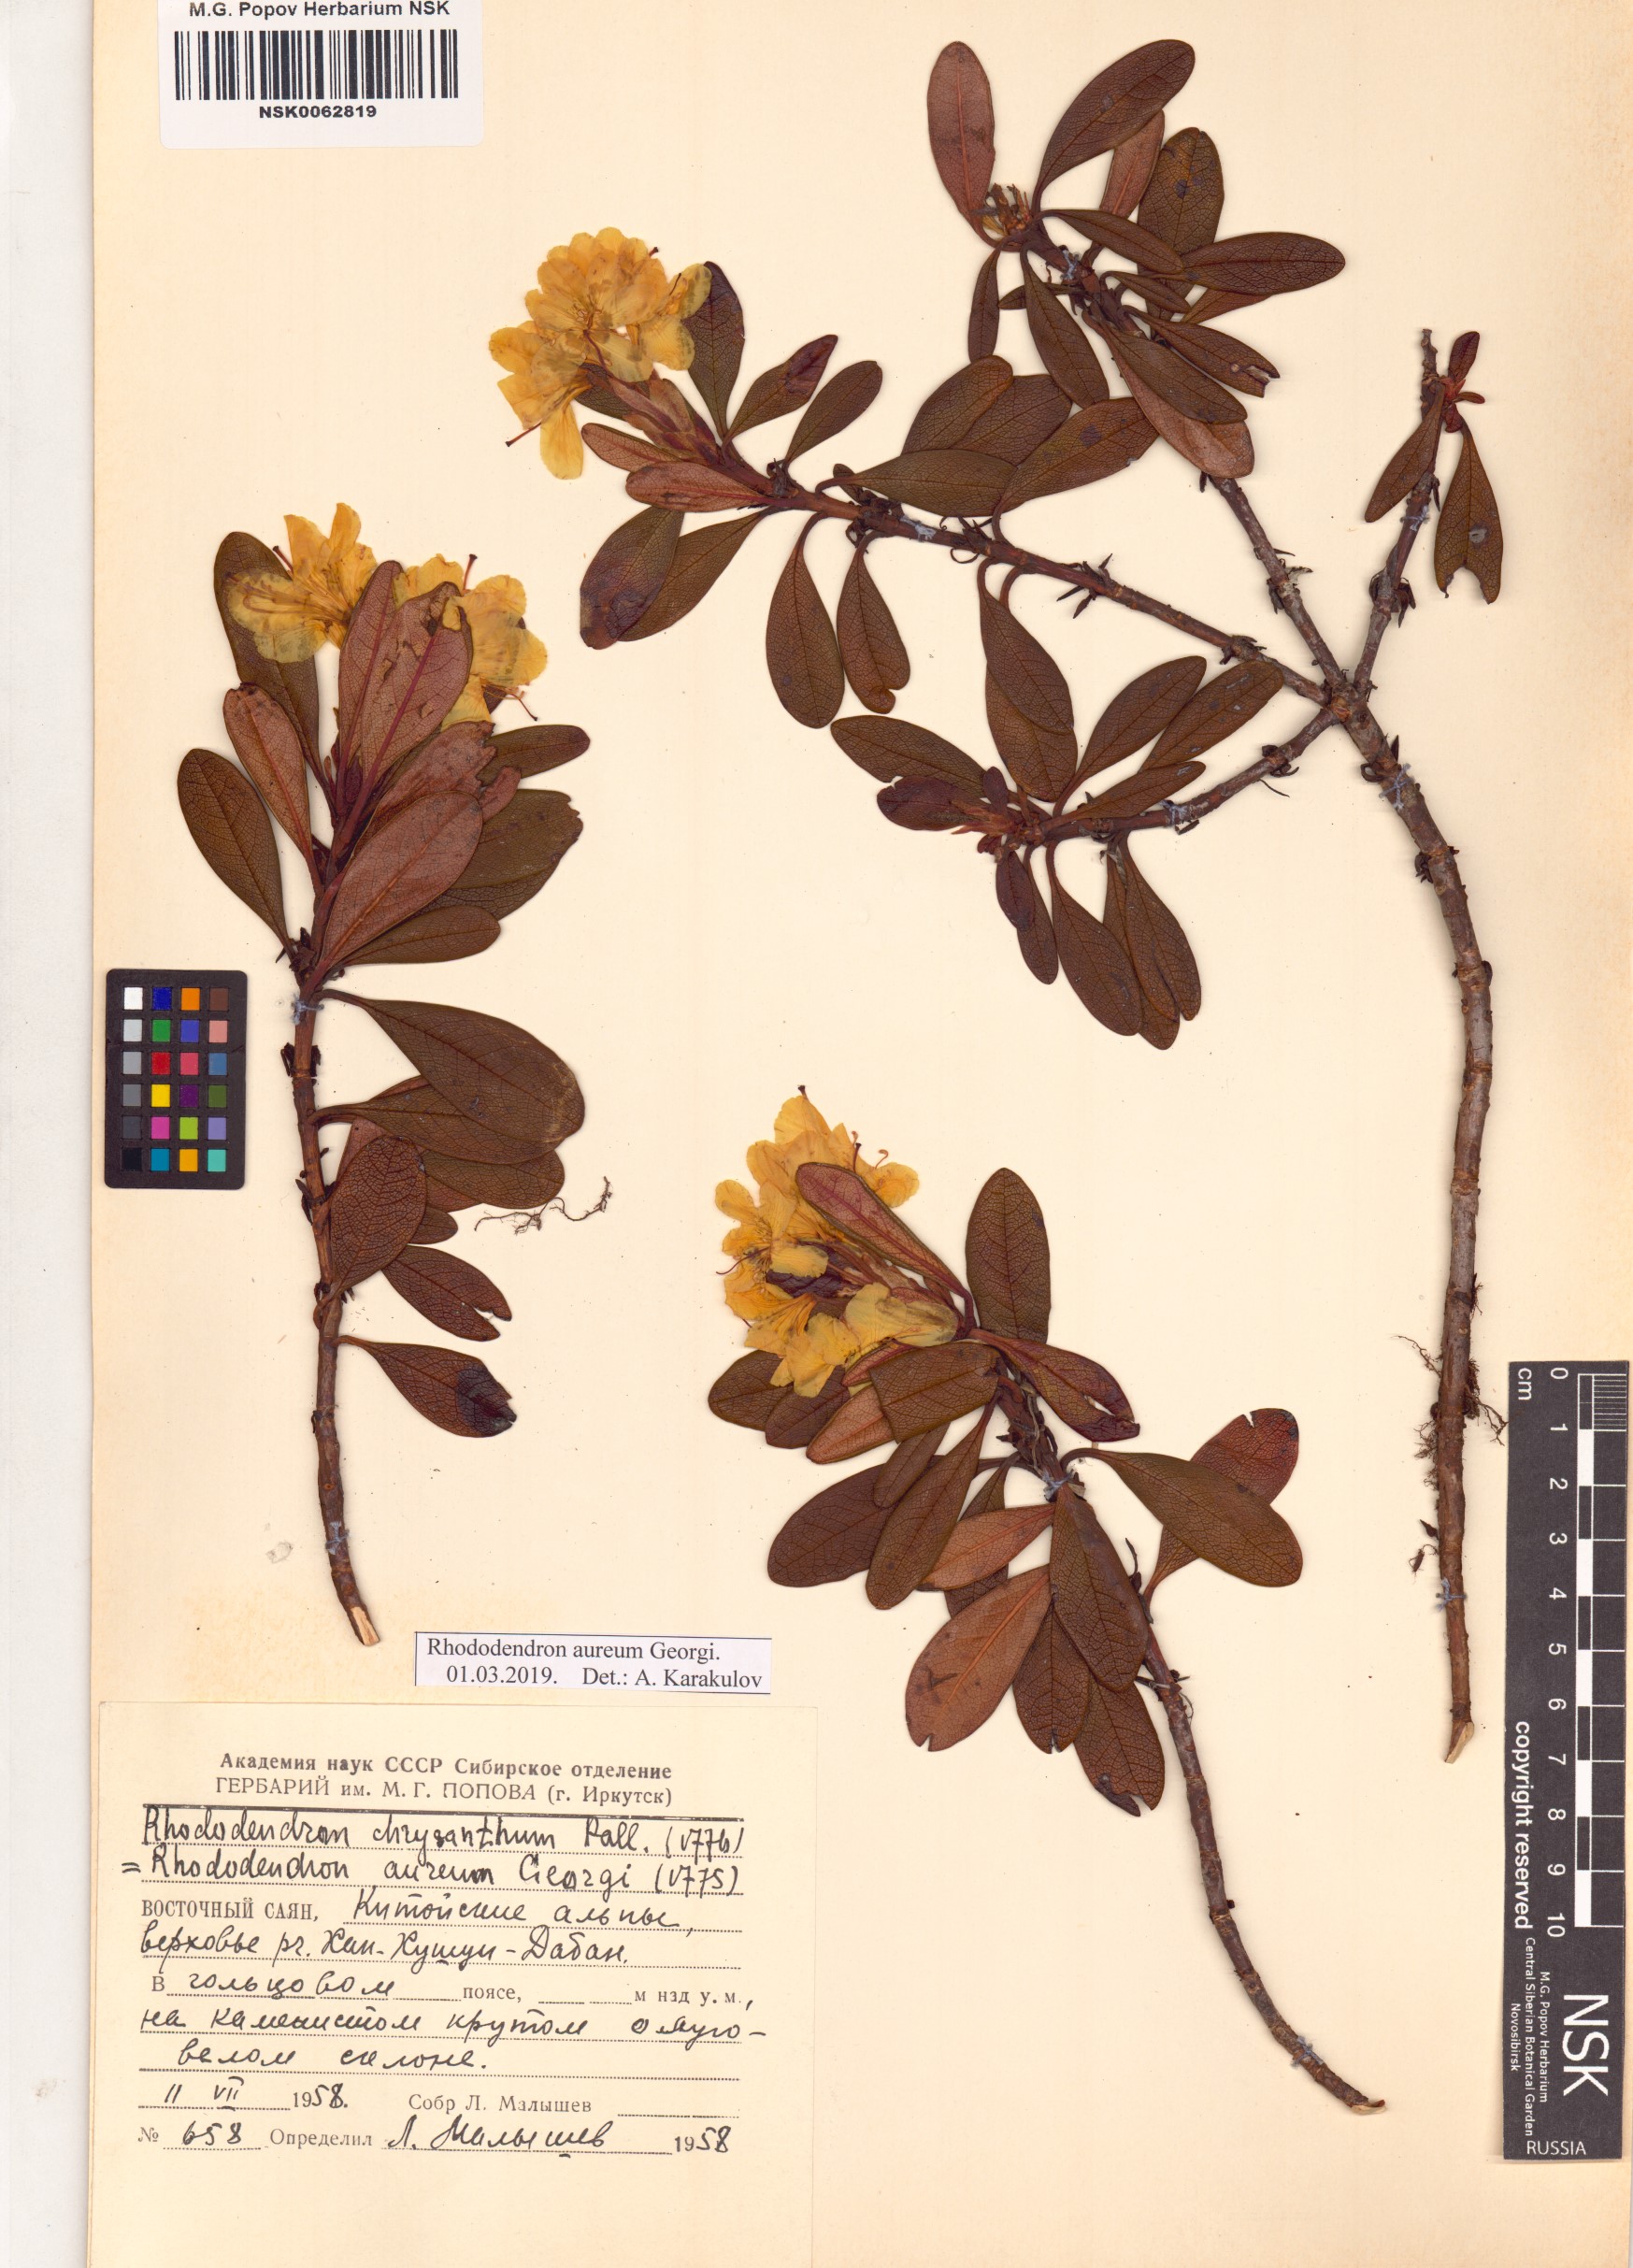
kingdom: Plantae
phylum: Tracheophyta
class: Magnoliopsida
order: Ericales
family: Ericaceae
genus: Rhododendron
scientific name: Rhododendron aureum
